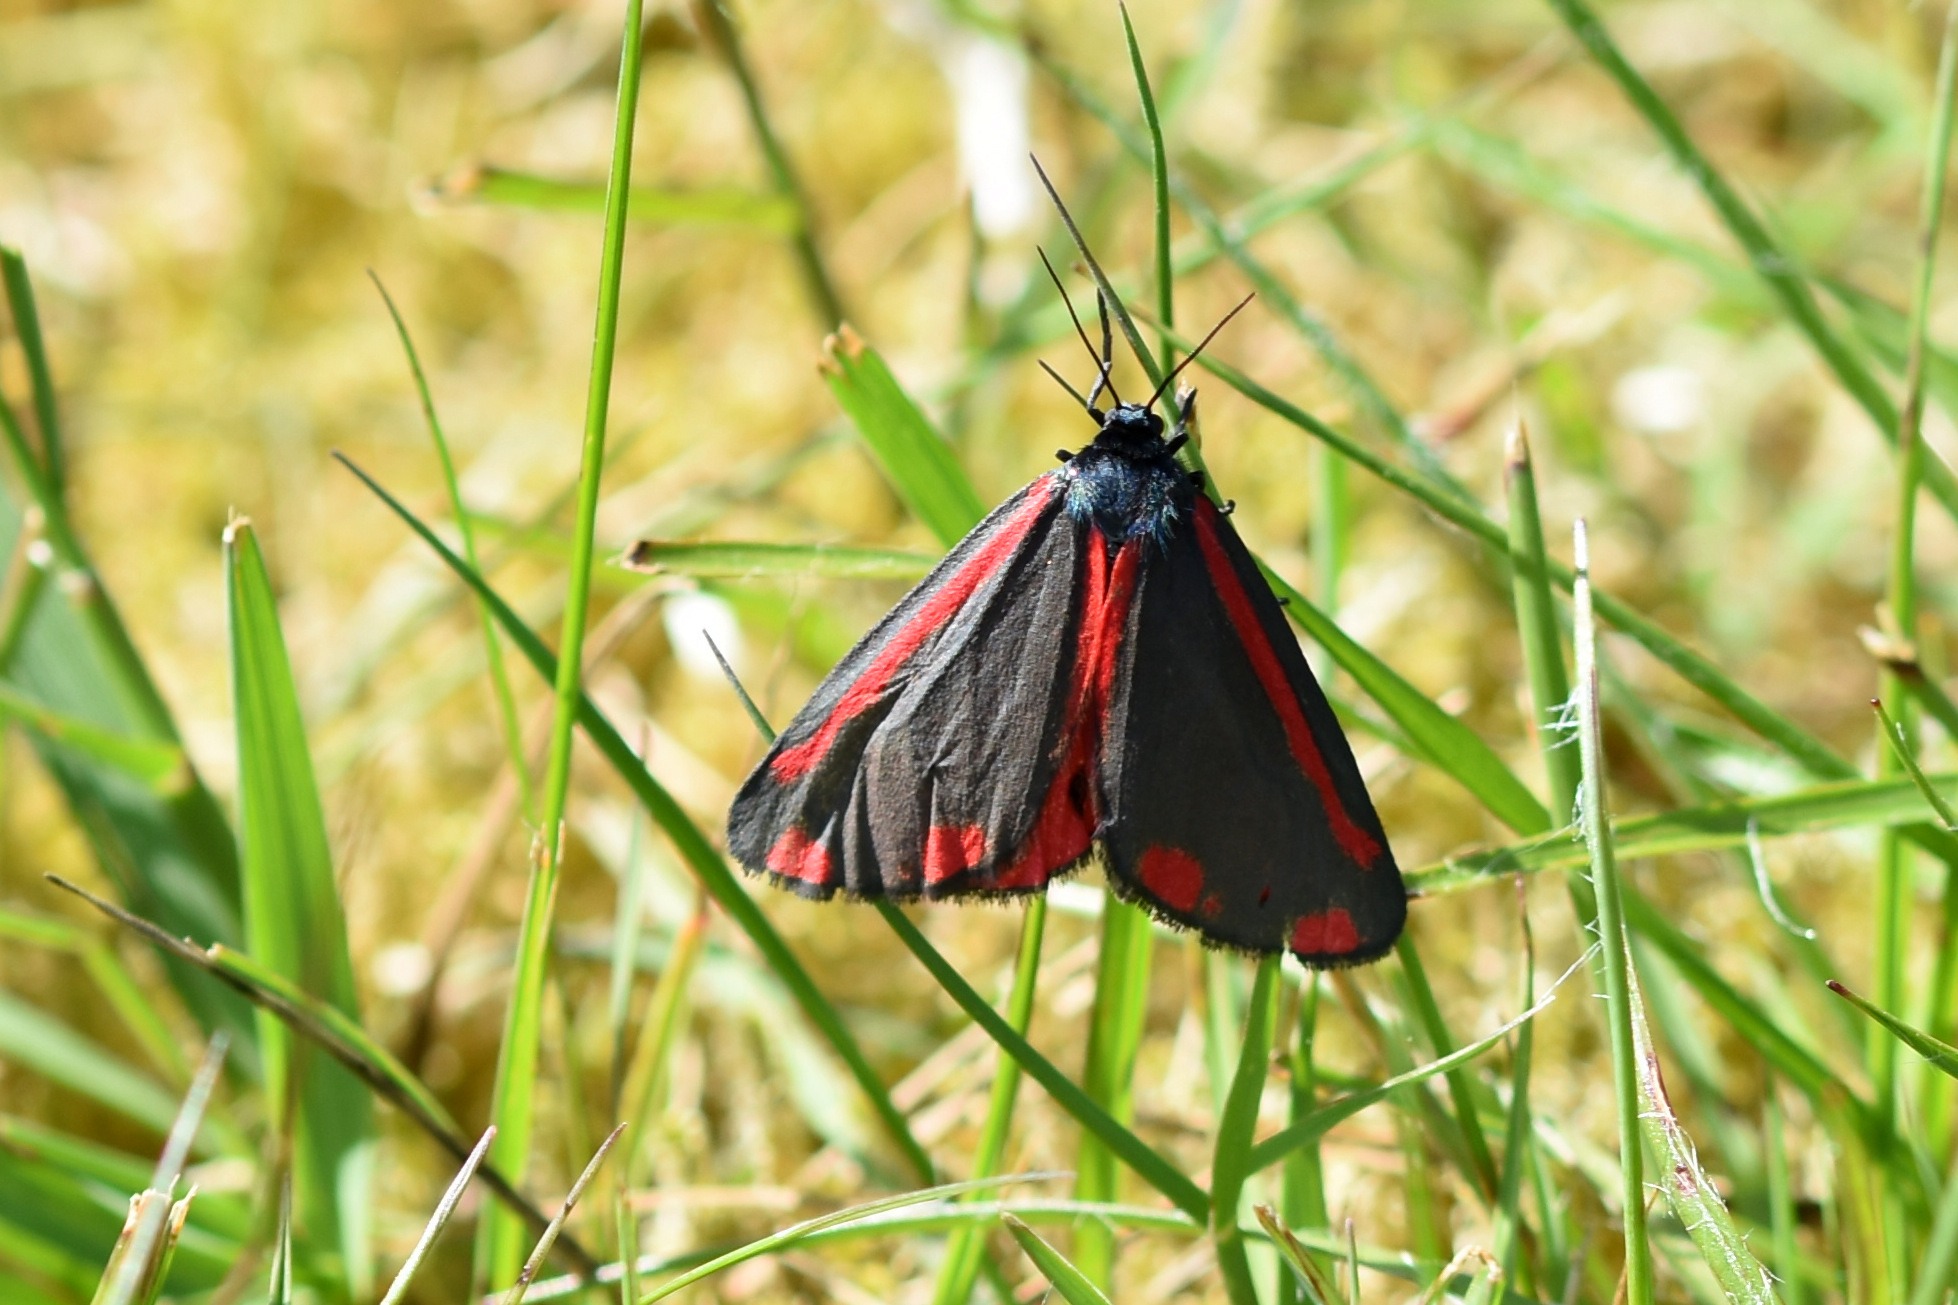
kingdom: Animalia
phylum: Arthropoda
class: Insecta
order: Lepidoptera
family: Erebidae
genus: Tyria
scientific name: Tyria jacobaeae
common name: Blodplet
